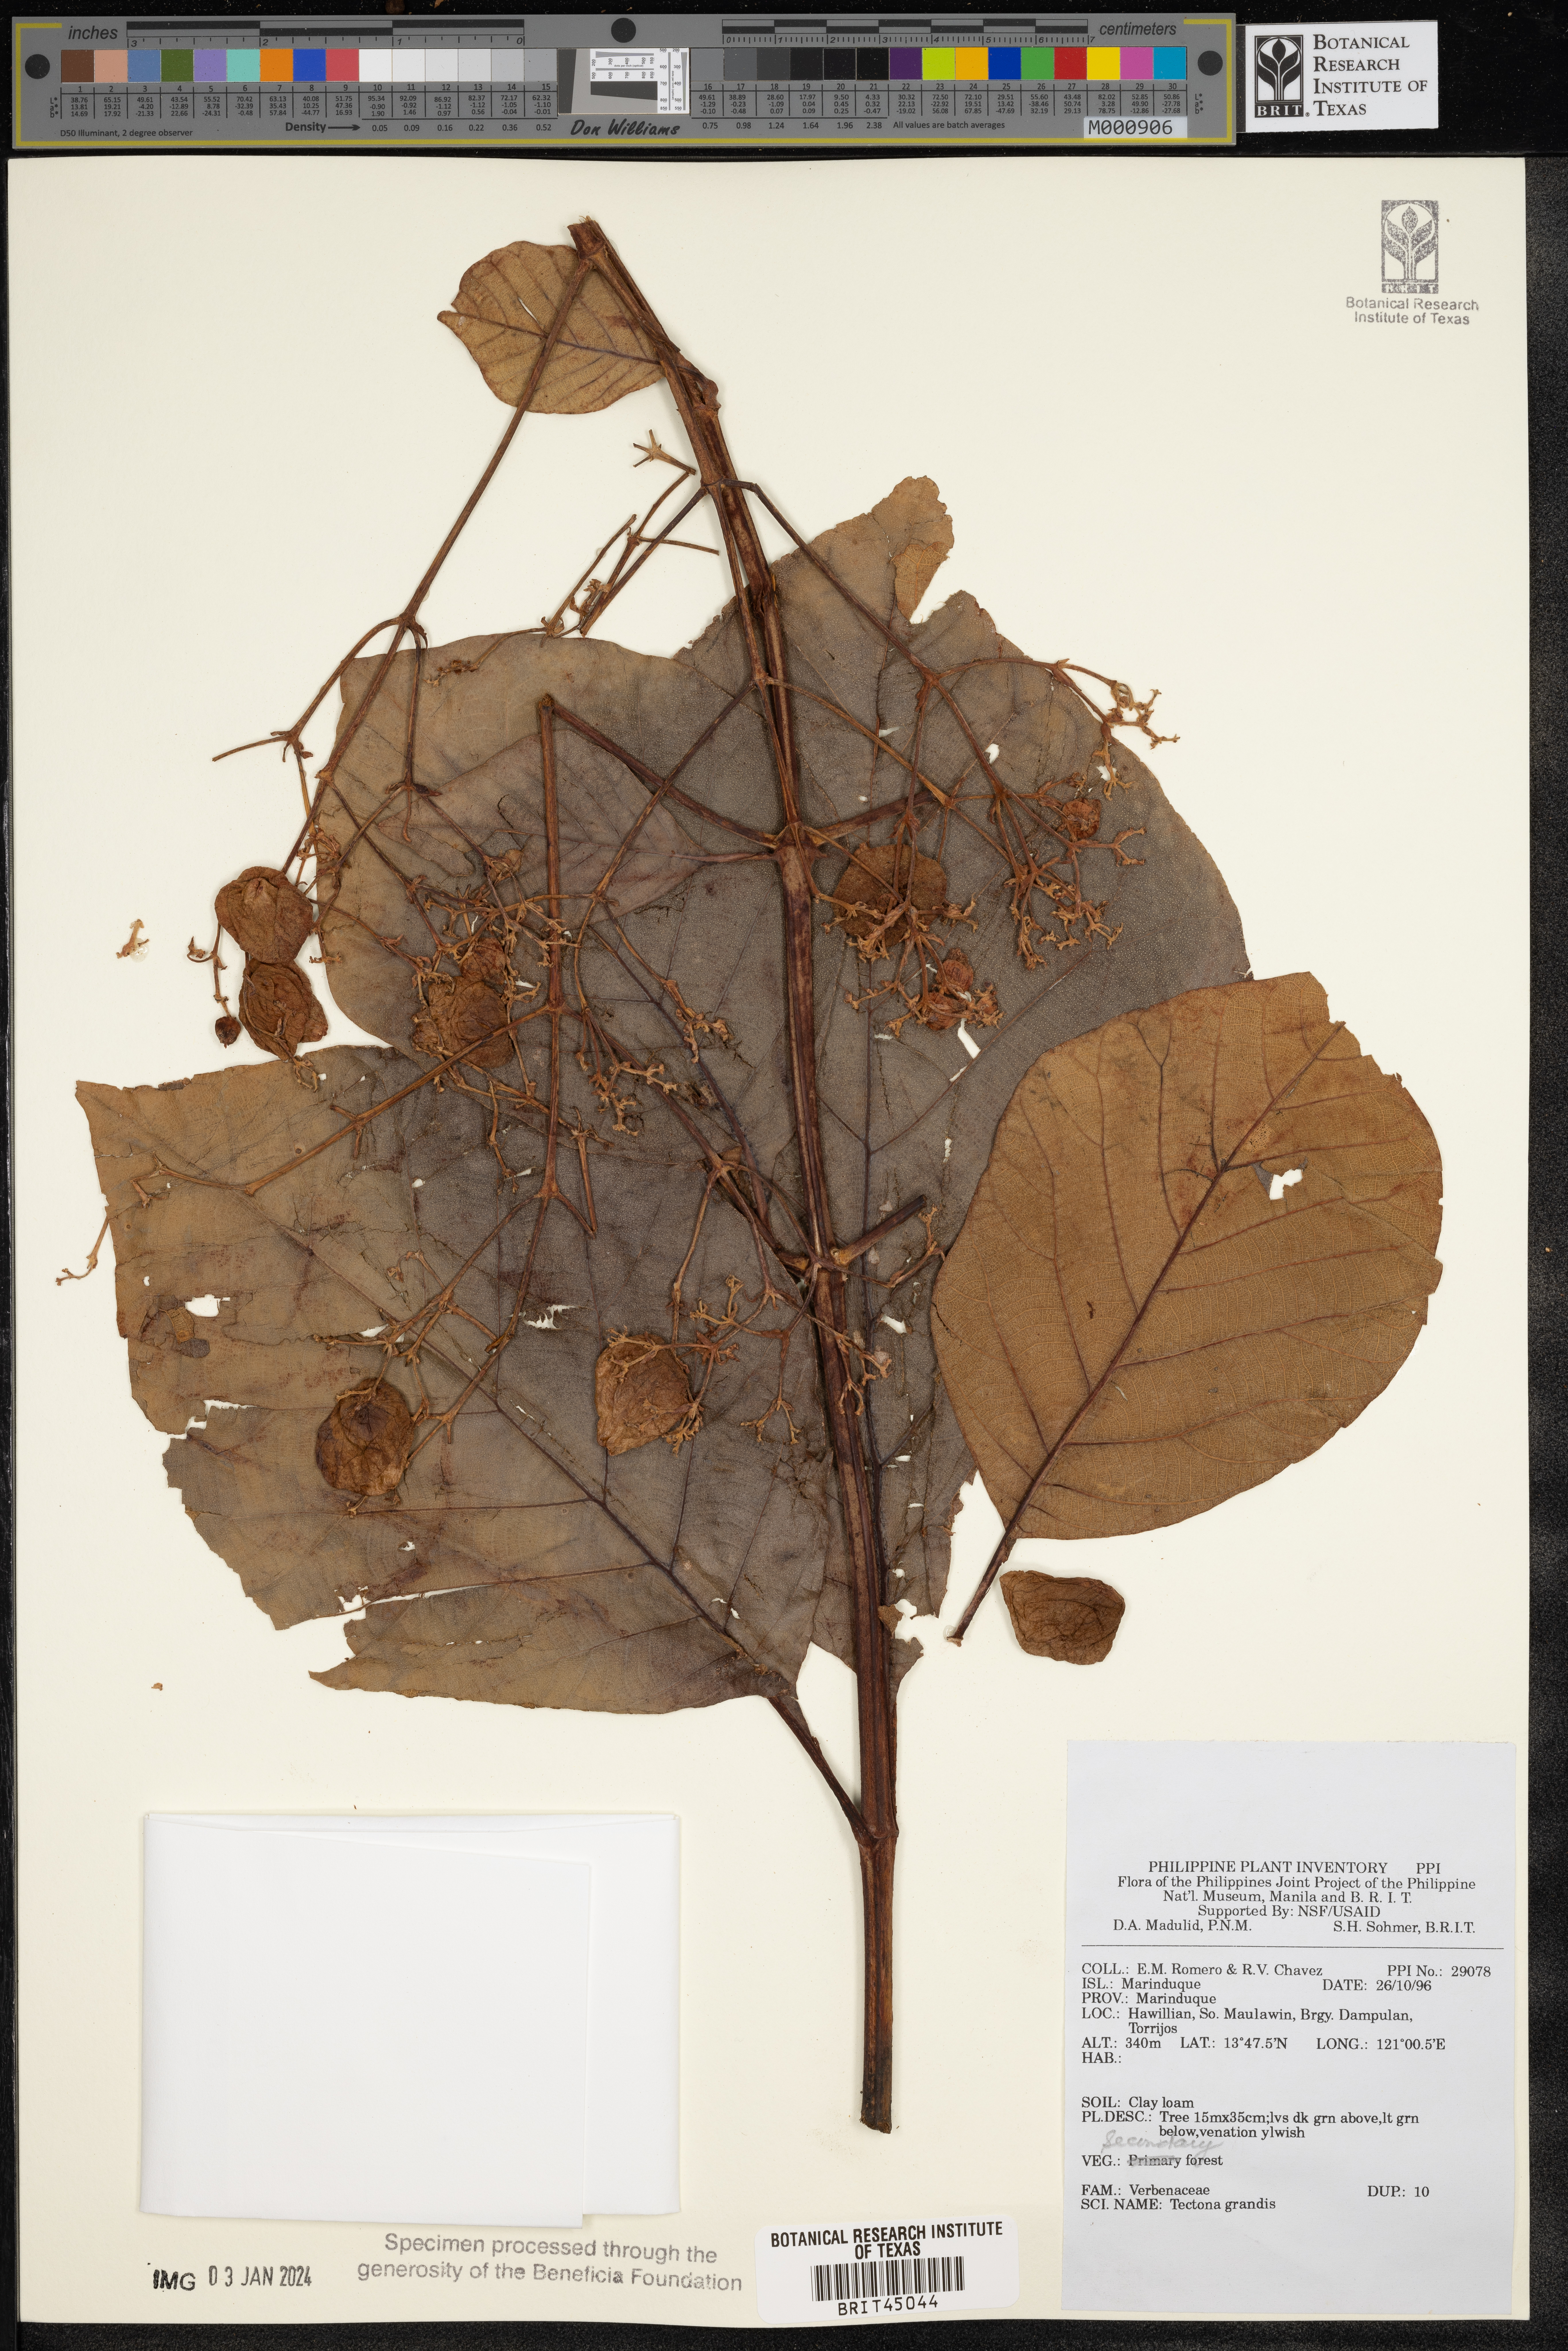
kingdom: Plantae
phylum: Tracheophyta
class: Magnoliopsida
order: Lamiales
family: Lamiaceae
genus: Tectona
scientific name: Tectona grandis
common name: Teak
